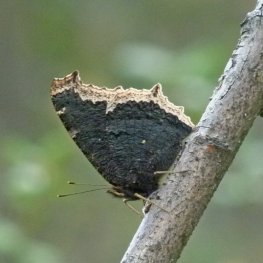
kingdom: Animalia
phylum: Arthropoda
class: Insecta
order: Lepidoptera
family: Nymphalidae
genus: Nymphalis
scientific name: Nymphalis antiopa
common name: Mourning Cloak
